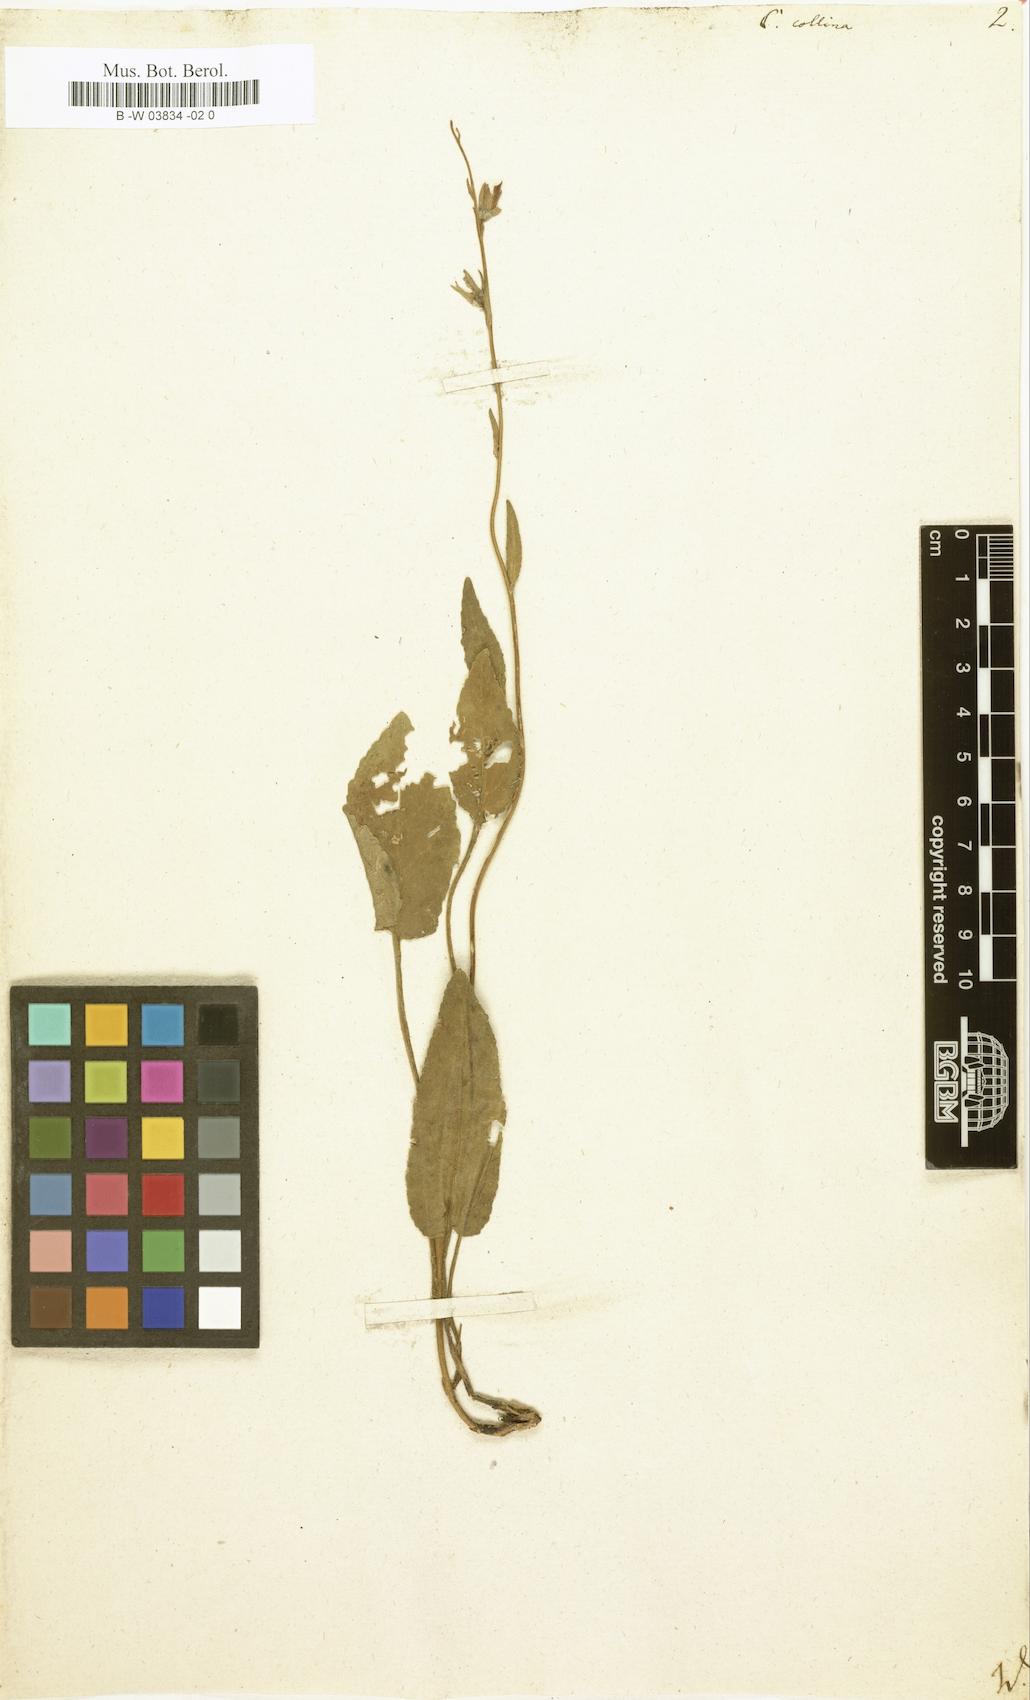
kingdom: Plantae
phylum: Tracheophyta
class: Magnoliopsida
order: Asterales
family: Campanulaceae
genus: Campanula
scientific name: Campanula collina
